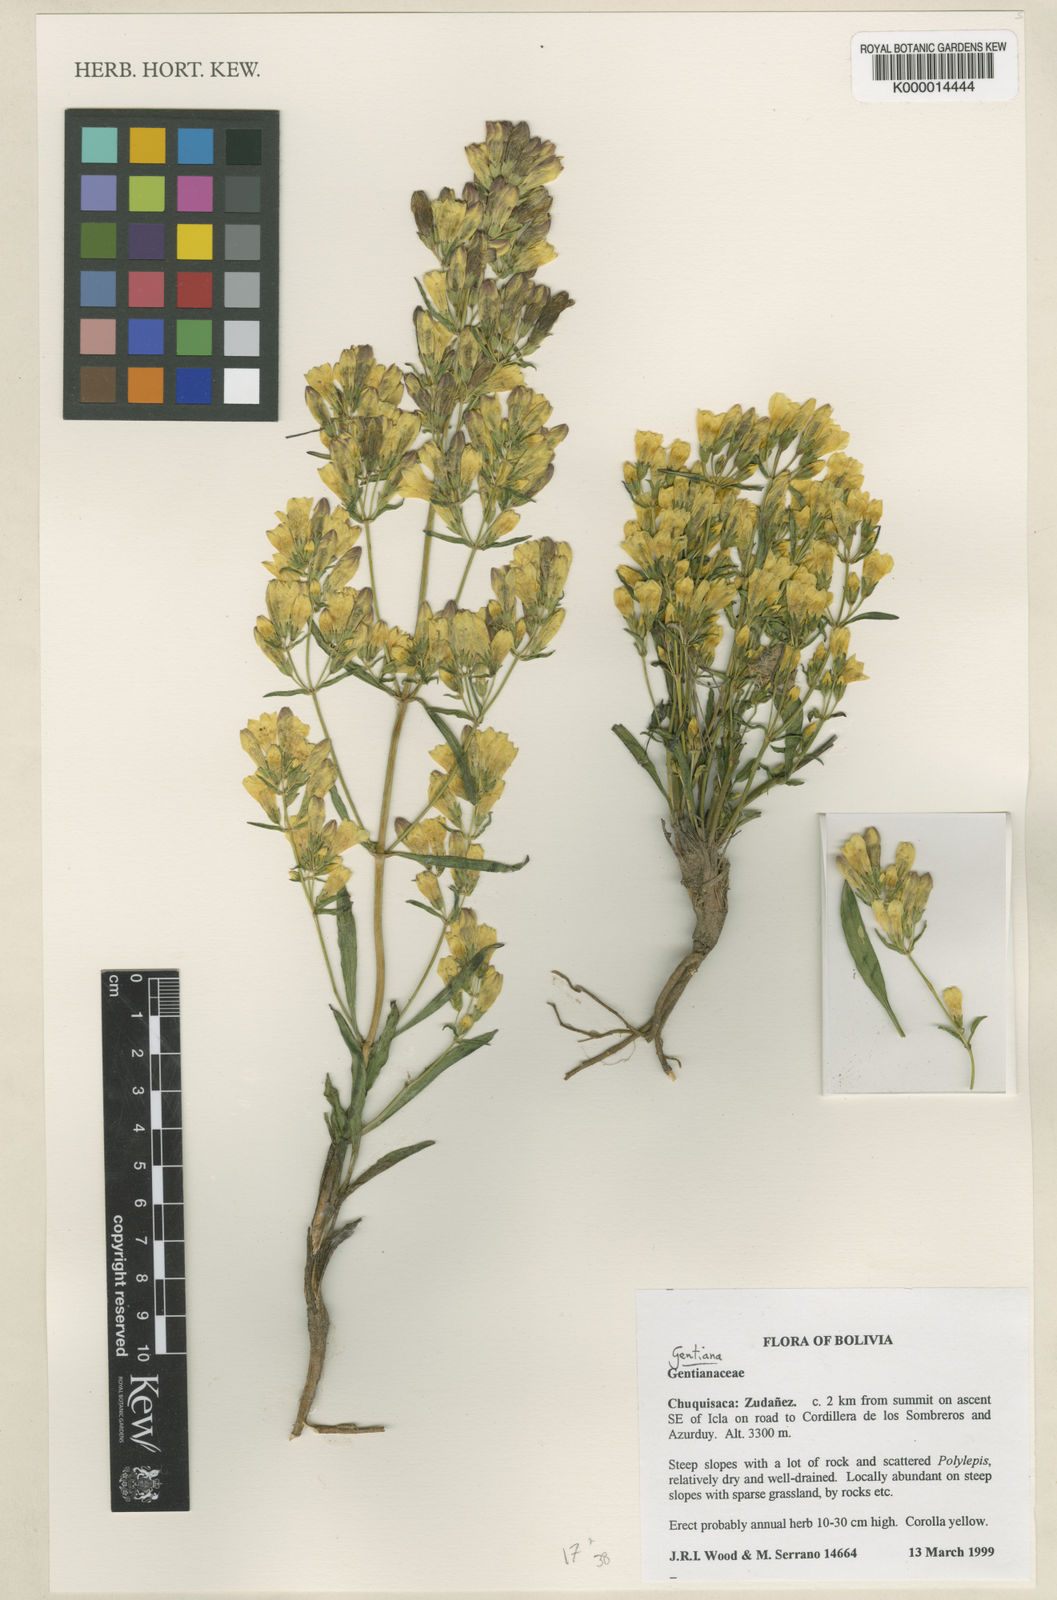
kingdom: Plantae
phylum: Tracheophyta
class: Magnoliopsida
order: Gentianales
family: Gentianaceae
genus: Gentiana
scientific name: Gentiana
